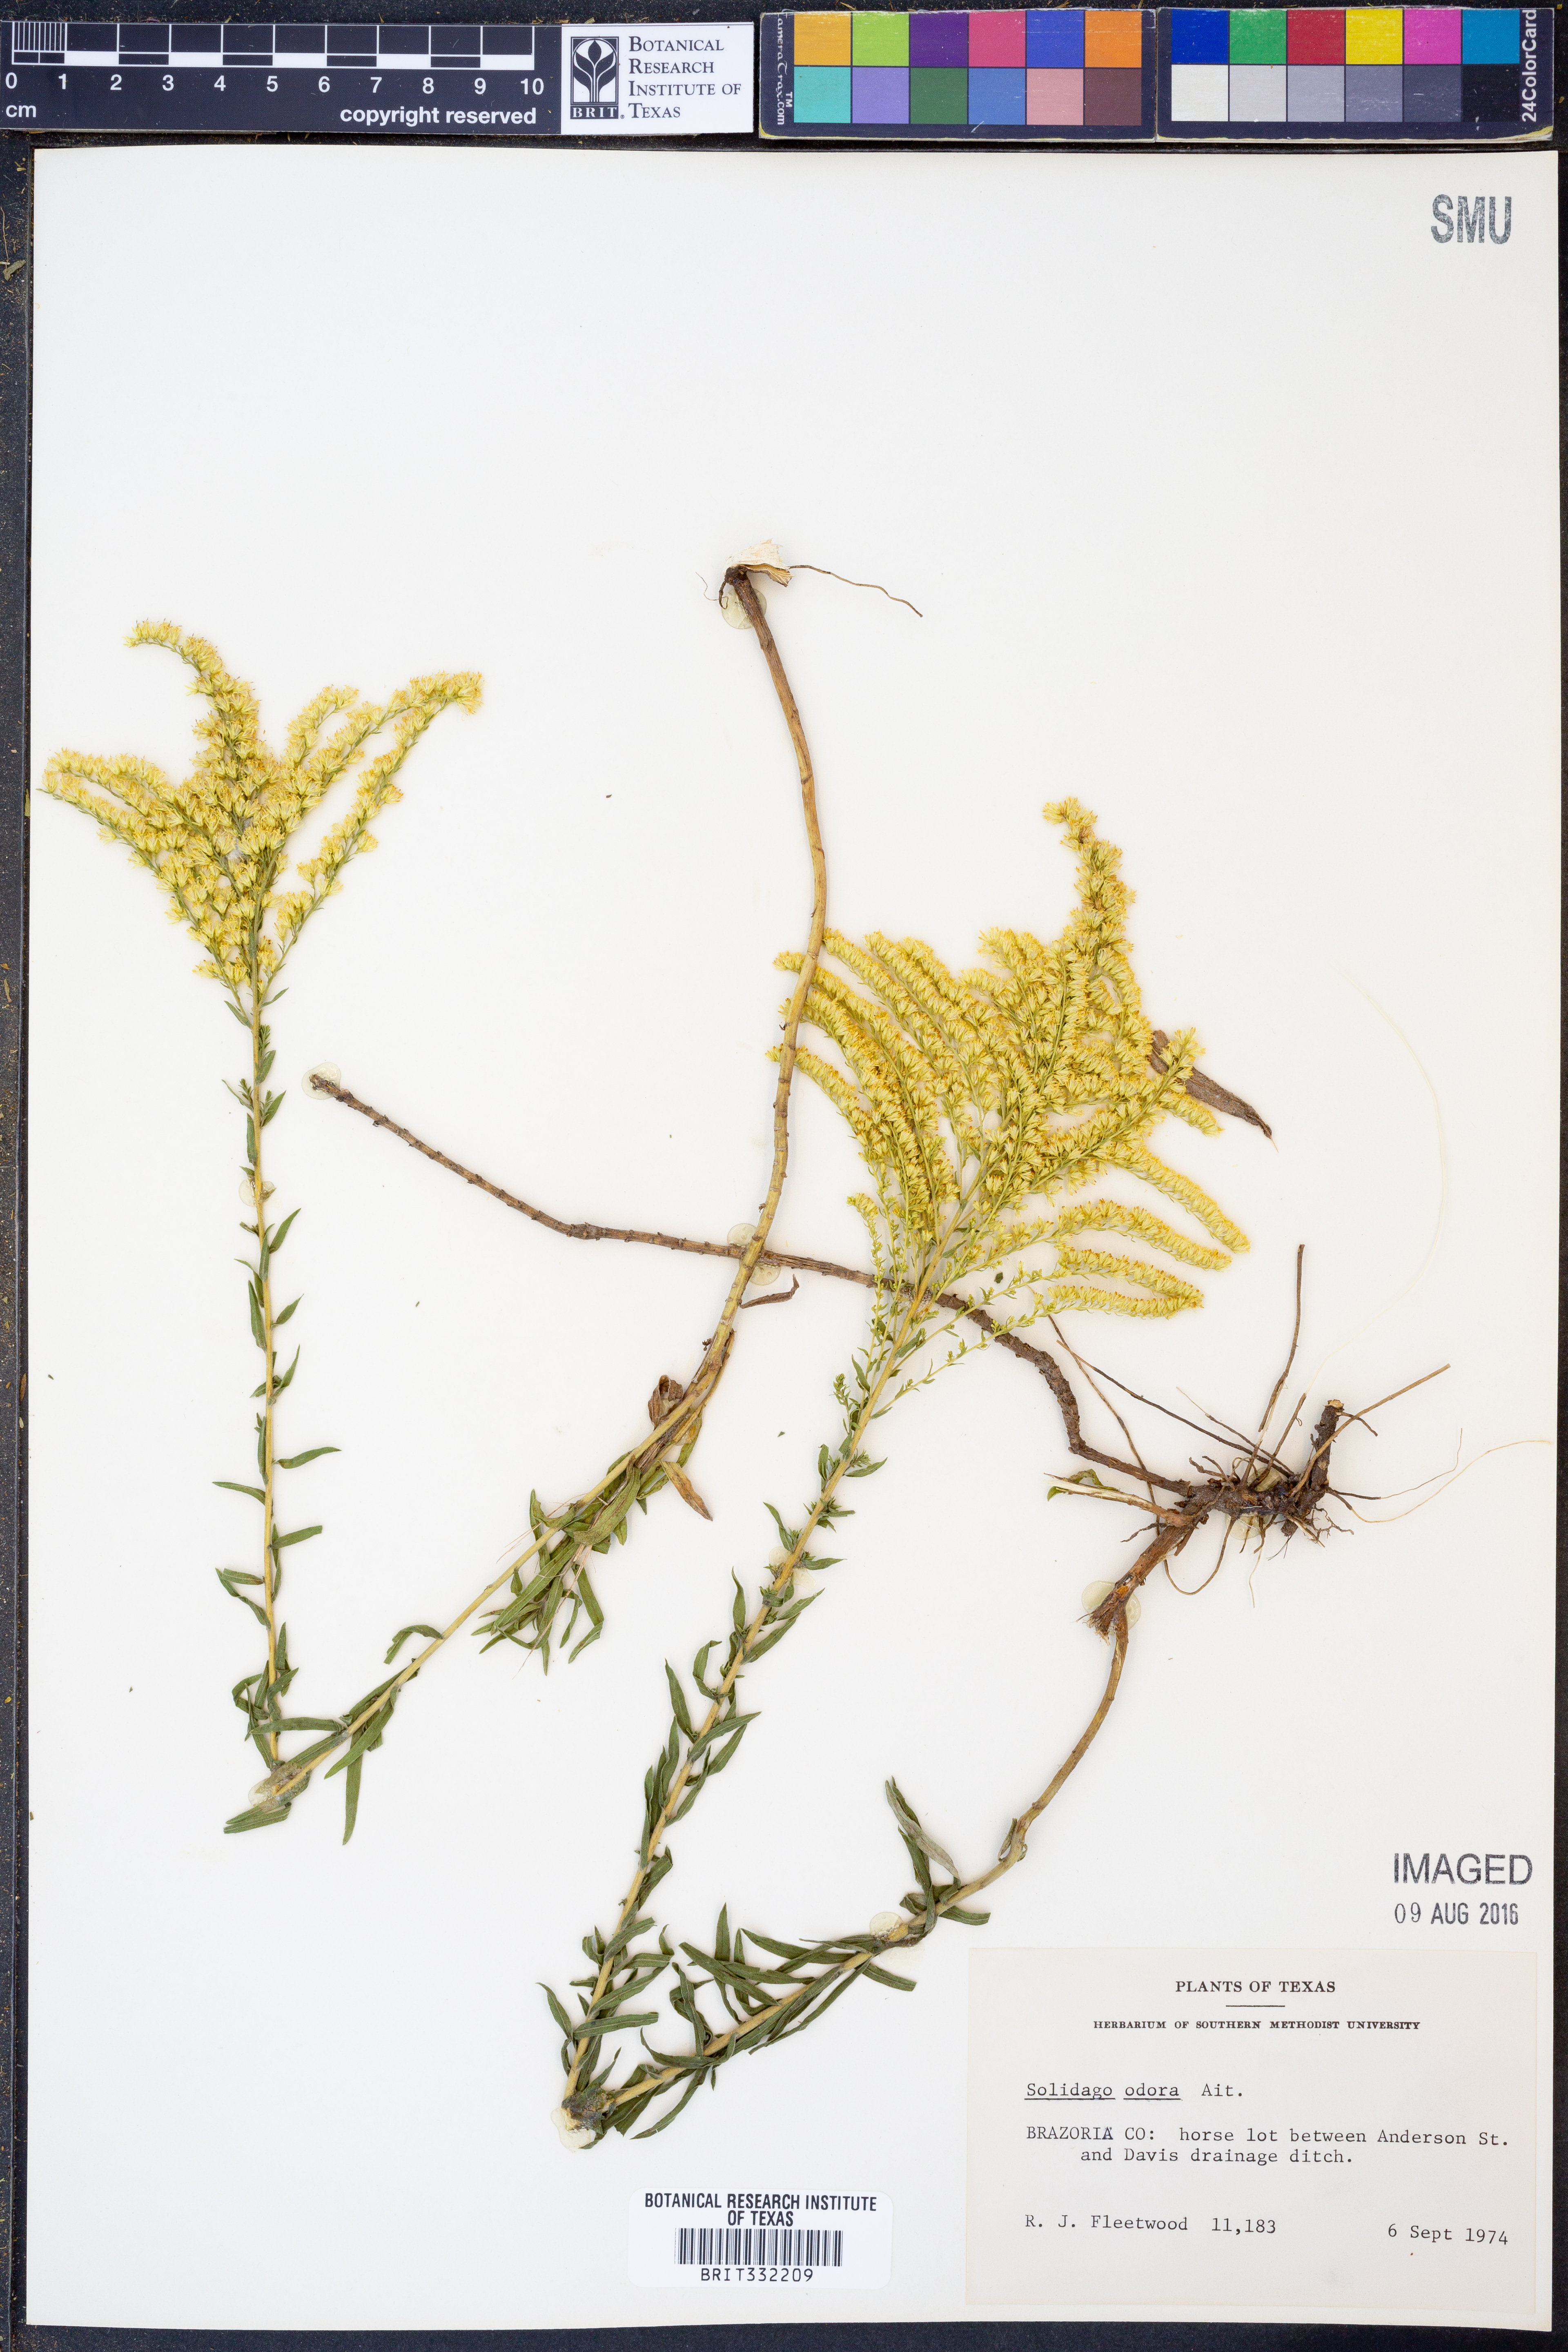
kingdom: Plantae
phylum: Tracheophyta
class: Magnoliopsida
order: Asterales
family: Asteraceae
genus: Solidago
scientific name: Solidago rugosa
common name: Rough-stemmed goldenrod
